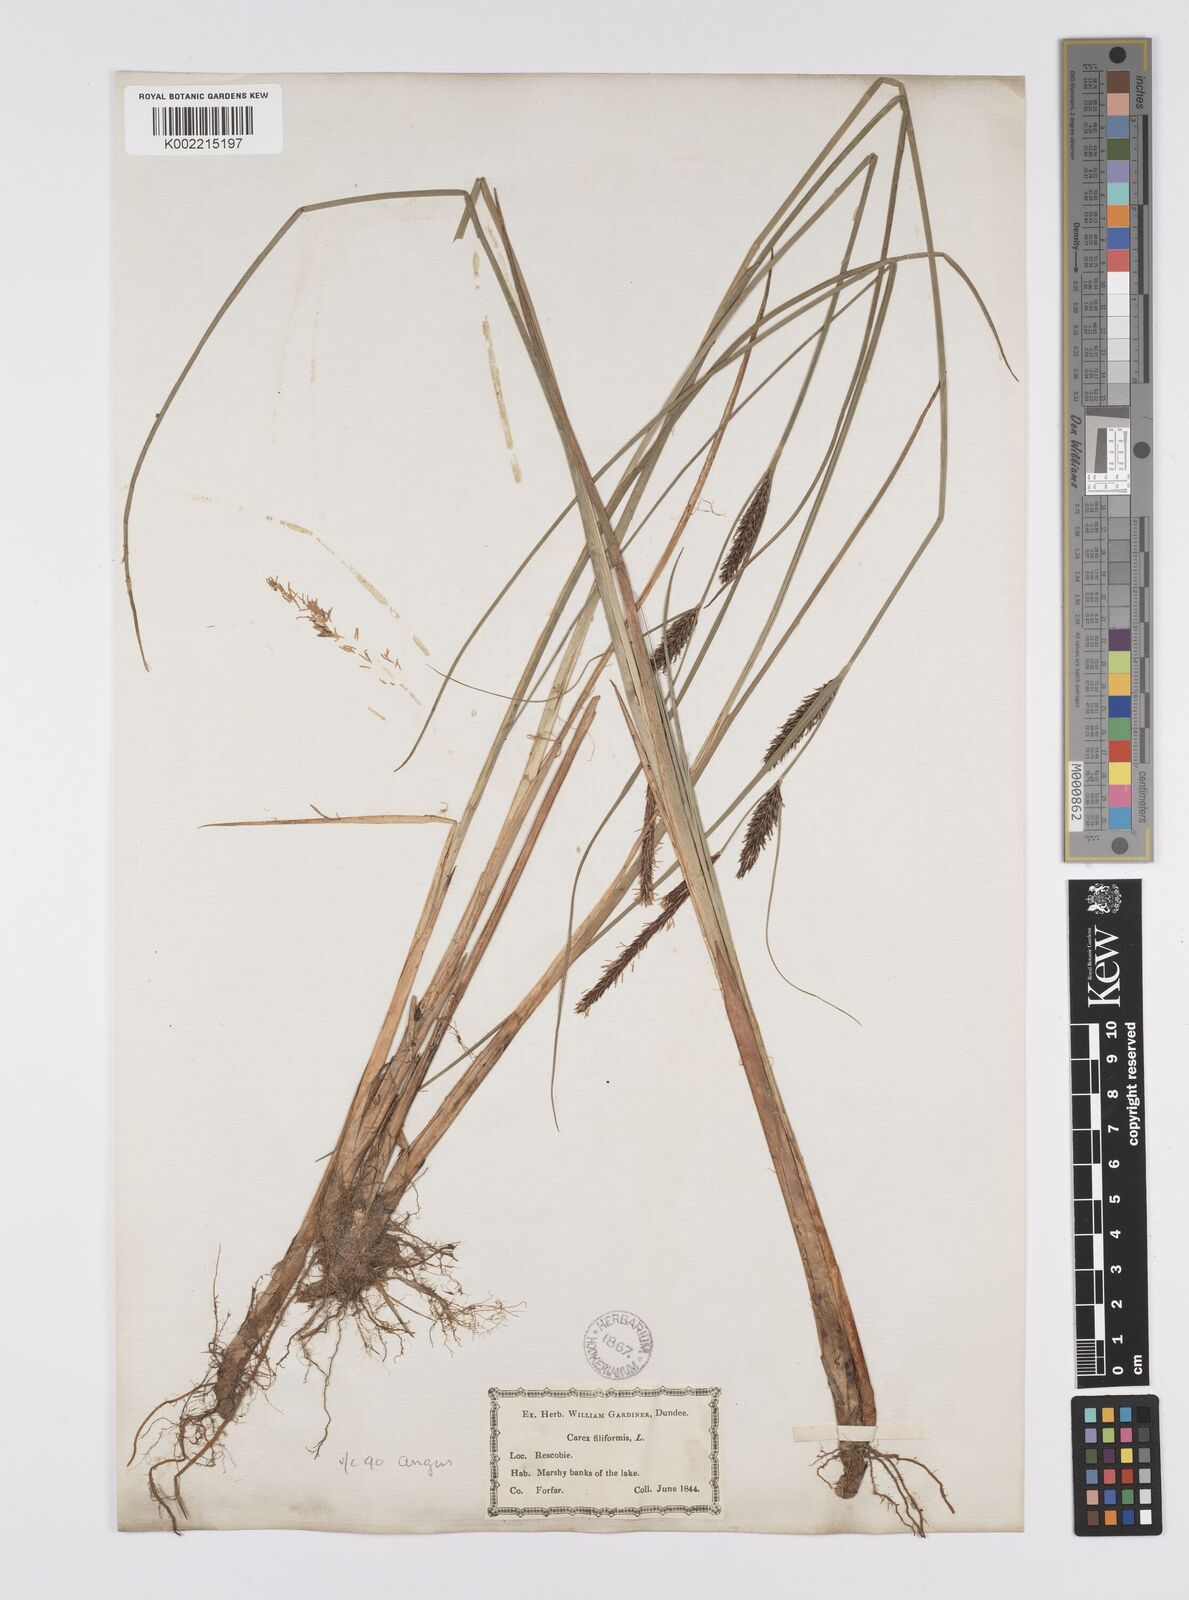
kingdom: Plantae
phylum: Tracheophyta
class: Liliopsida
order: Poales
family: Cyperaceae
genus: Carex
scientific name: Carex lasiocarpa
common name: Slender sedge
